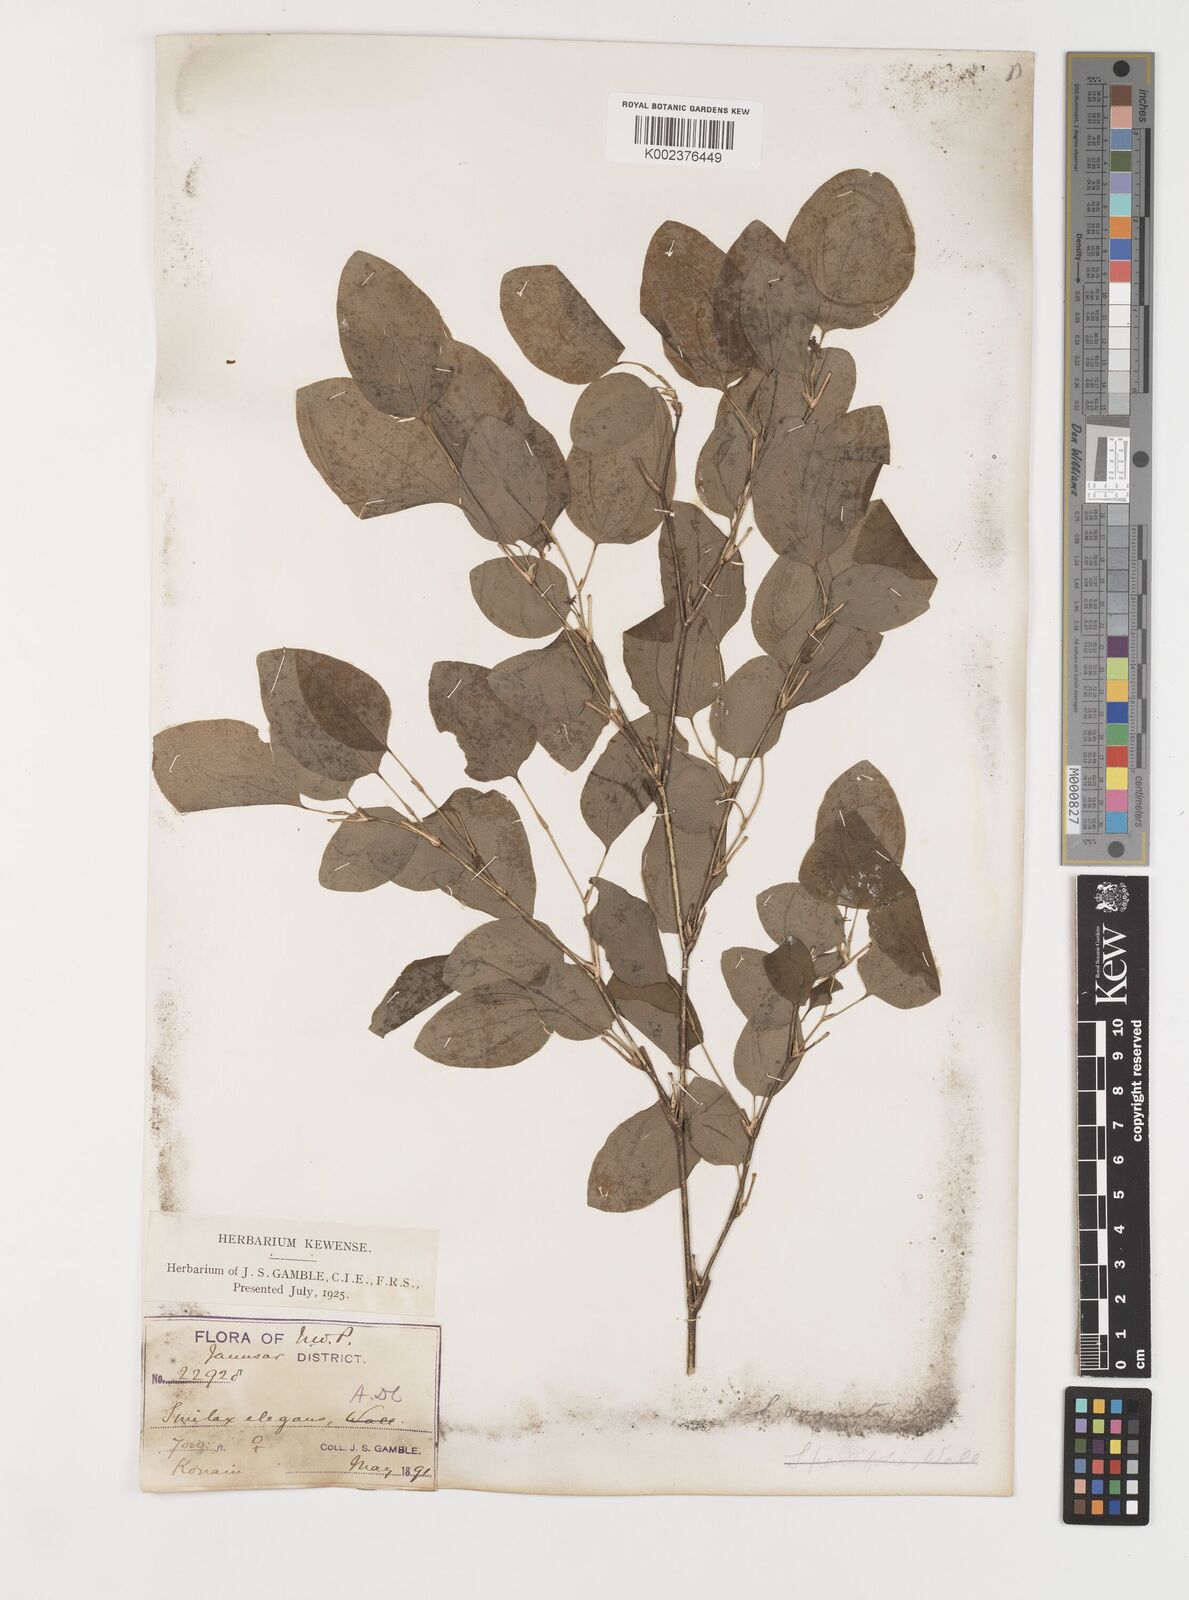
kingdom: Plantae
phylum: Tracheophyta
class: Liliopsida
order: Liliales
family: Smilacaceae
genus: Smilax
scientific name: Smilax vaginata
